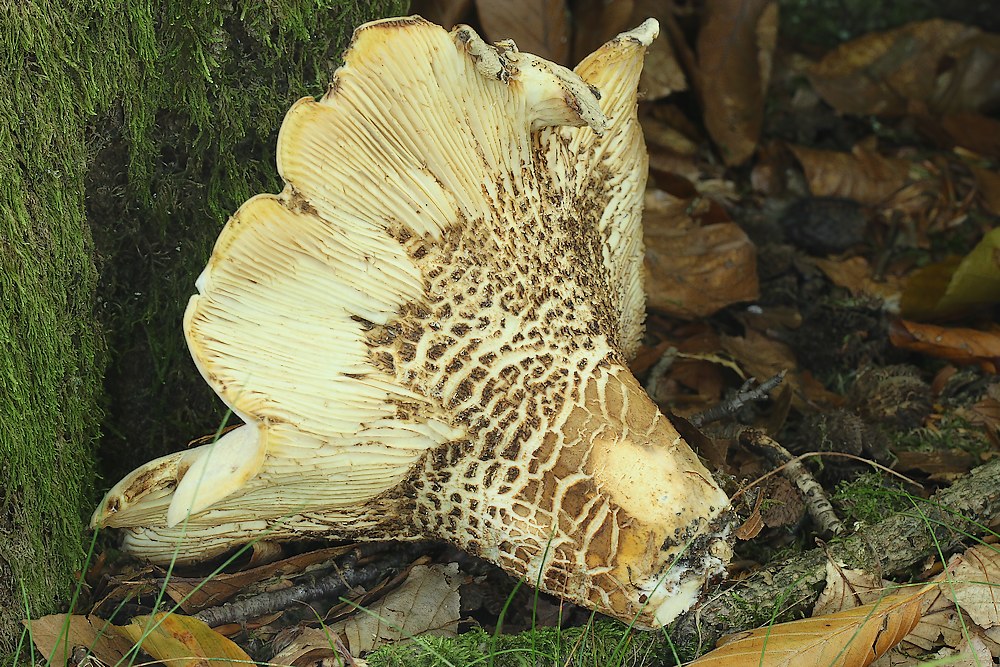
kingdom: Fungi
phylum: Basidiomycota
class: Agaricomycetes
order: Russulales
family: Russulaceae
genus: Lactifluus
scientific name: Lactifluus
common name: mælkehat
